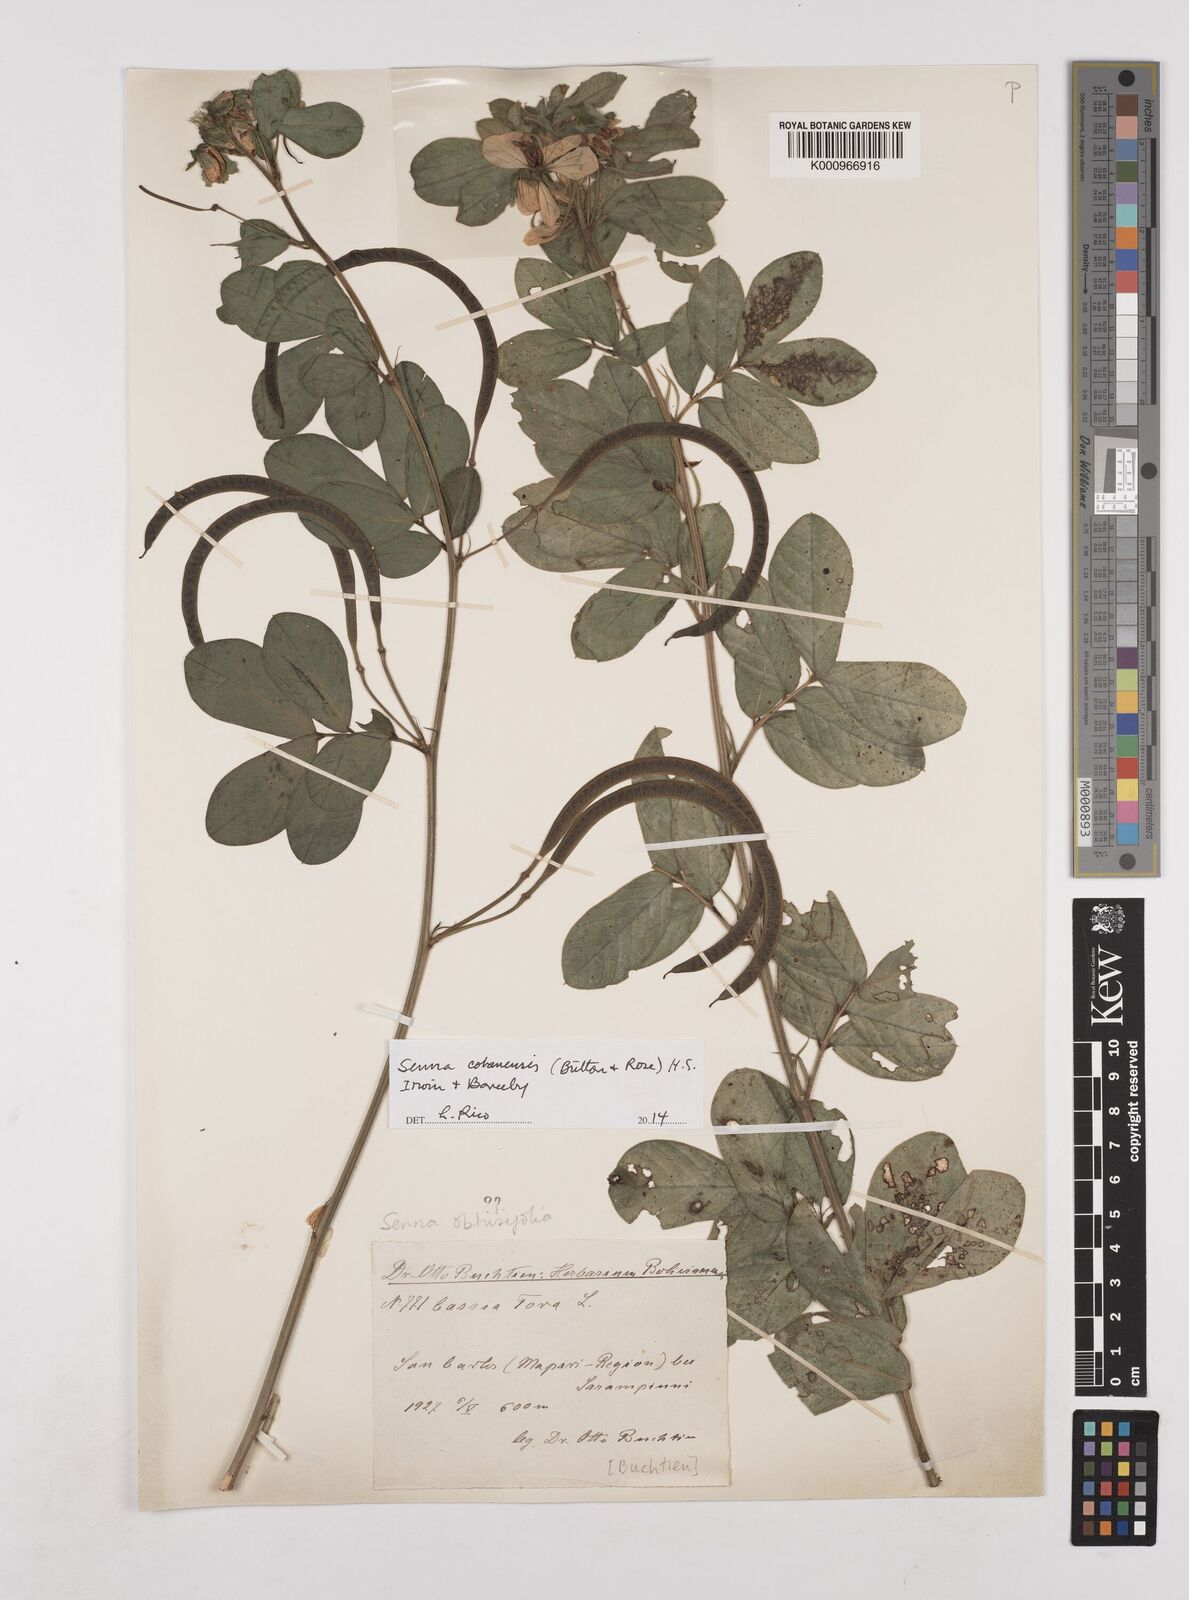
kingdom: Plantae
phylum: Tracheophyta
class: Magnoliopsida
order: Fabales
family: Fabaceae
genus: Senna
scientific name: Senna cobanensis
